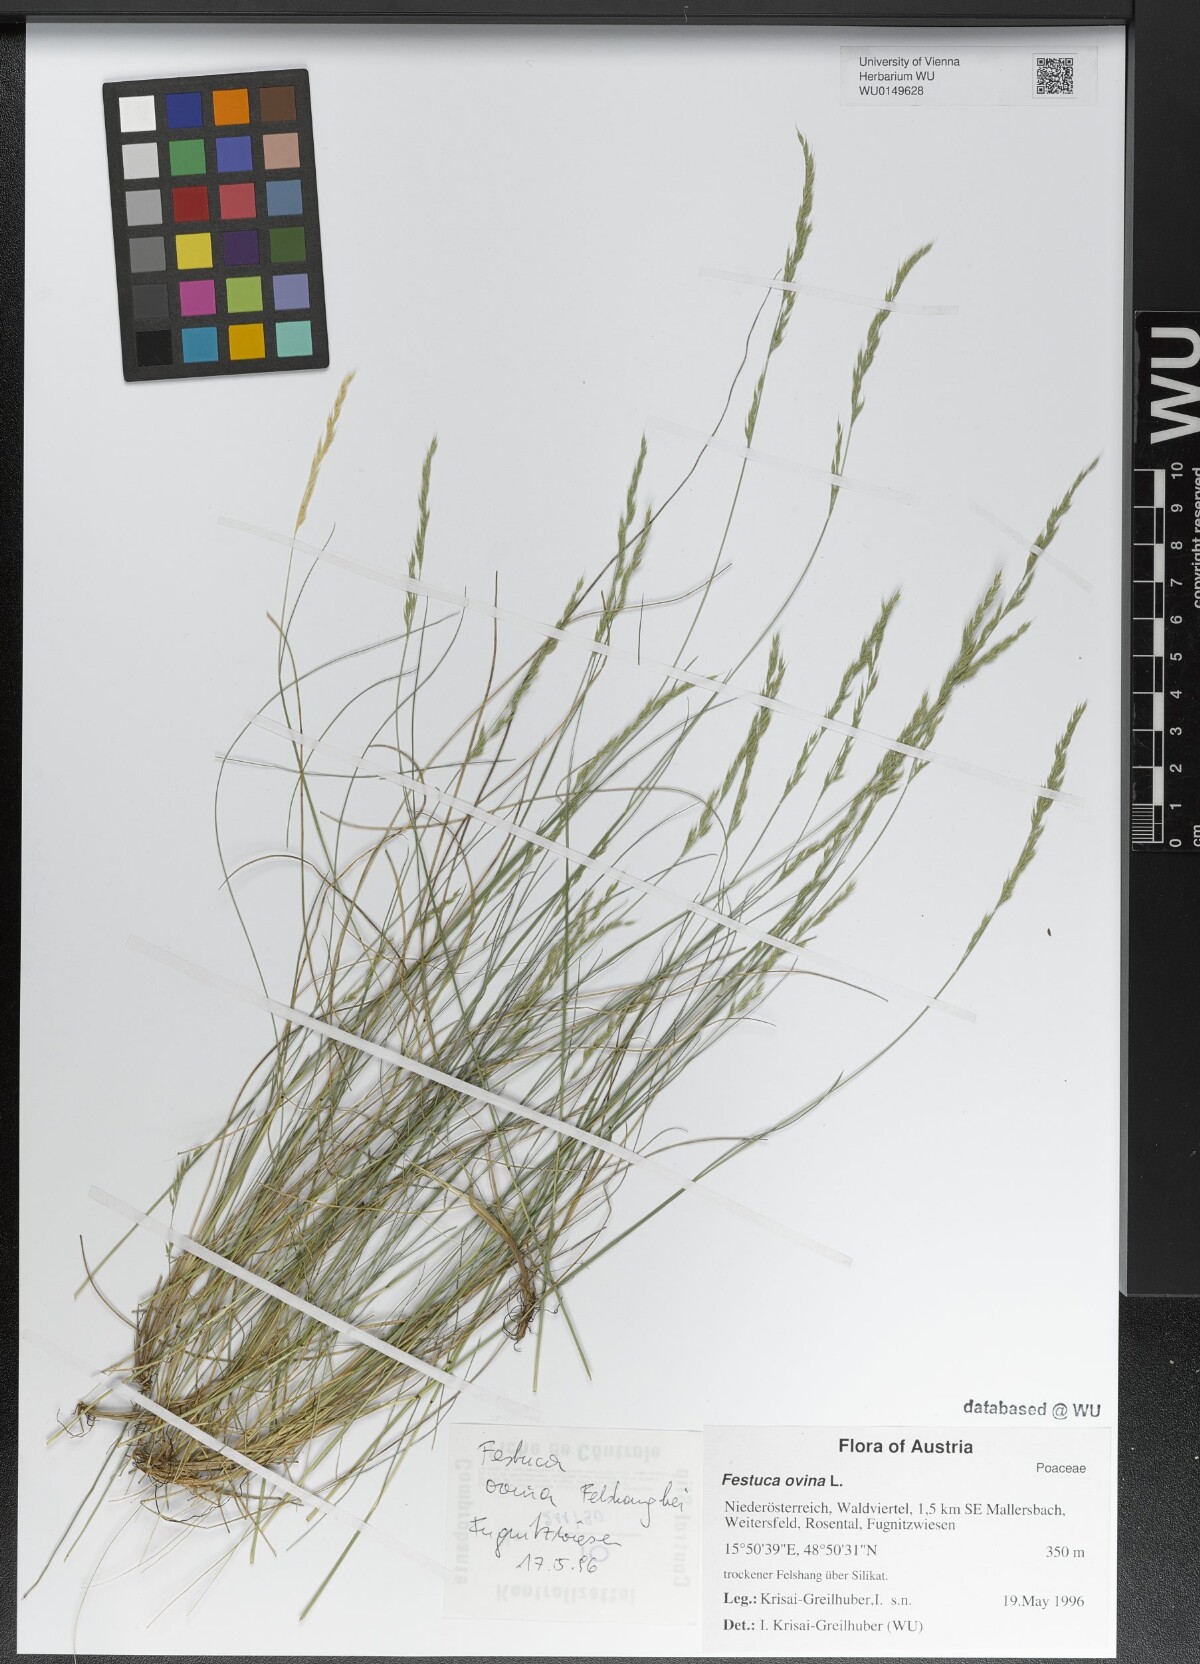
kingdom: Plantae
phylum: Tracheophyta
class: Liliopsida
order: Poales
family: Poaceae
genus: Festuca
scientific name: Festuca ovina
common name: Sheep fescue
